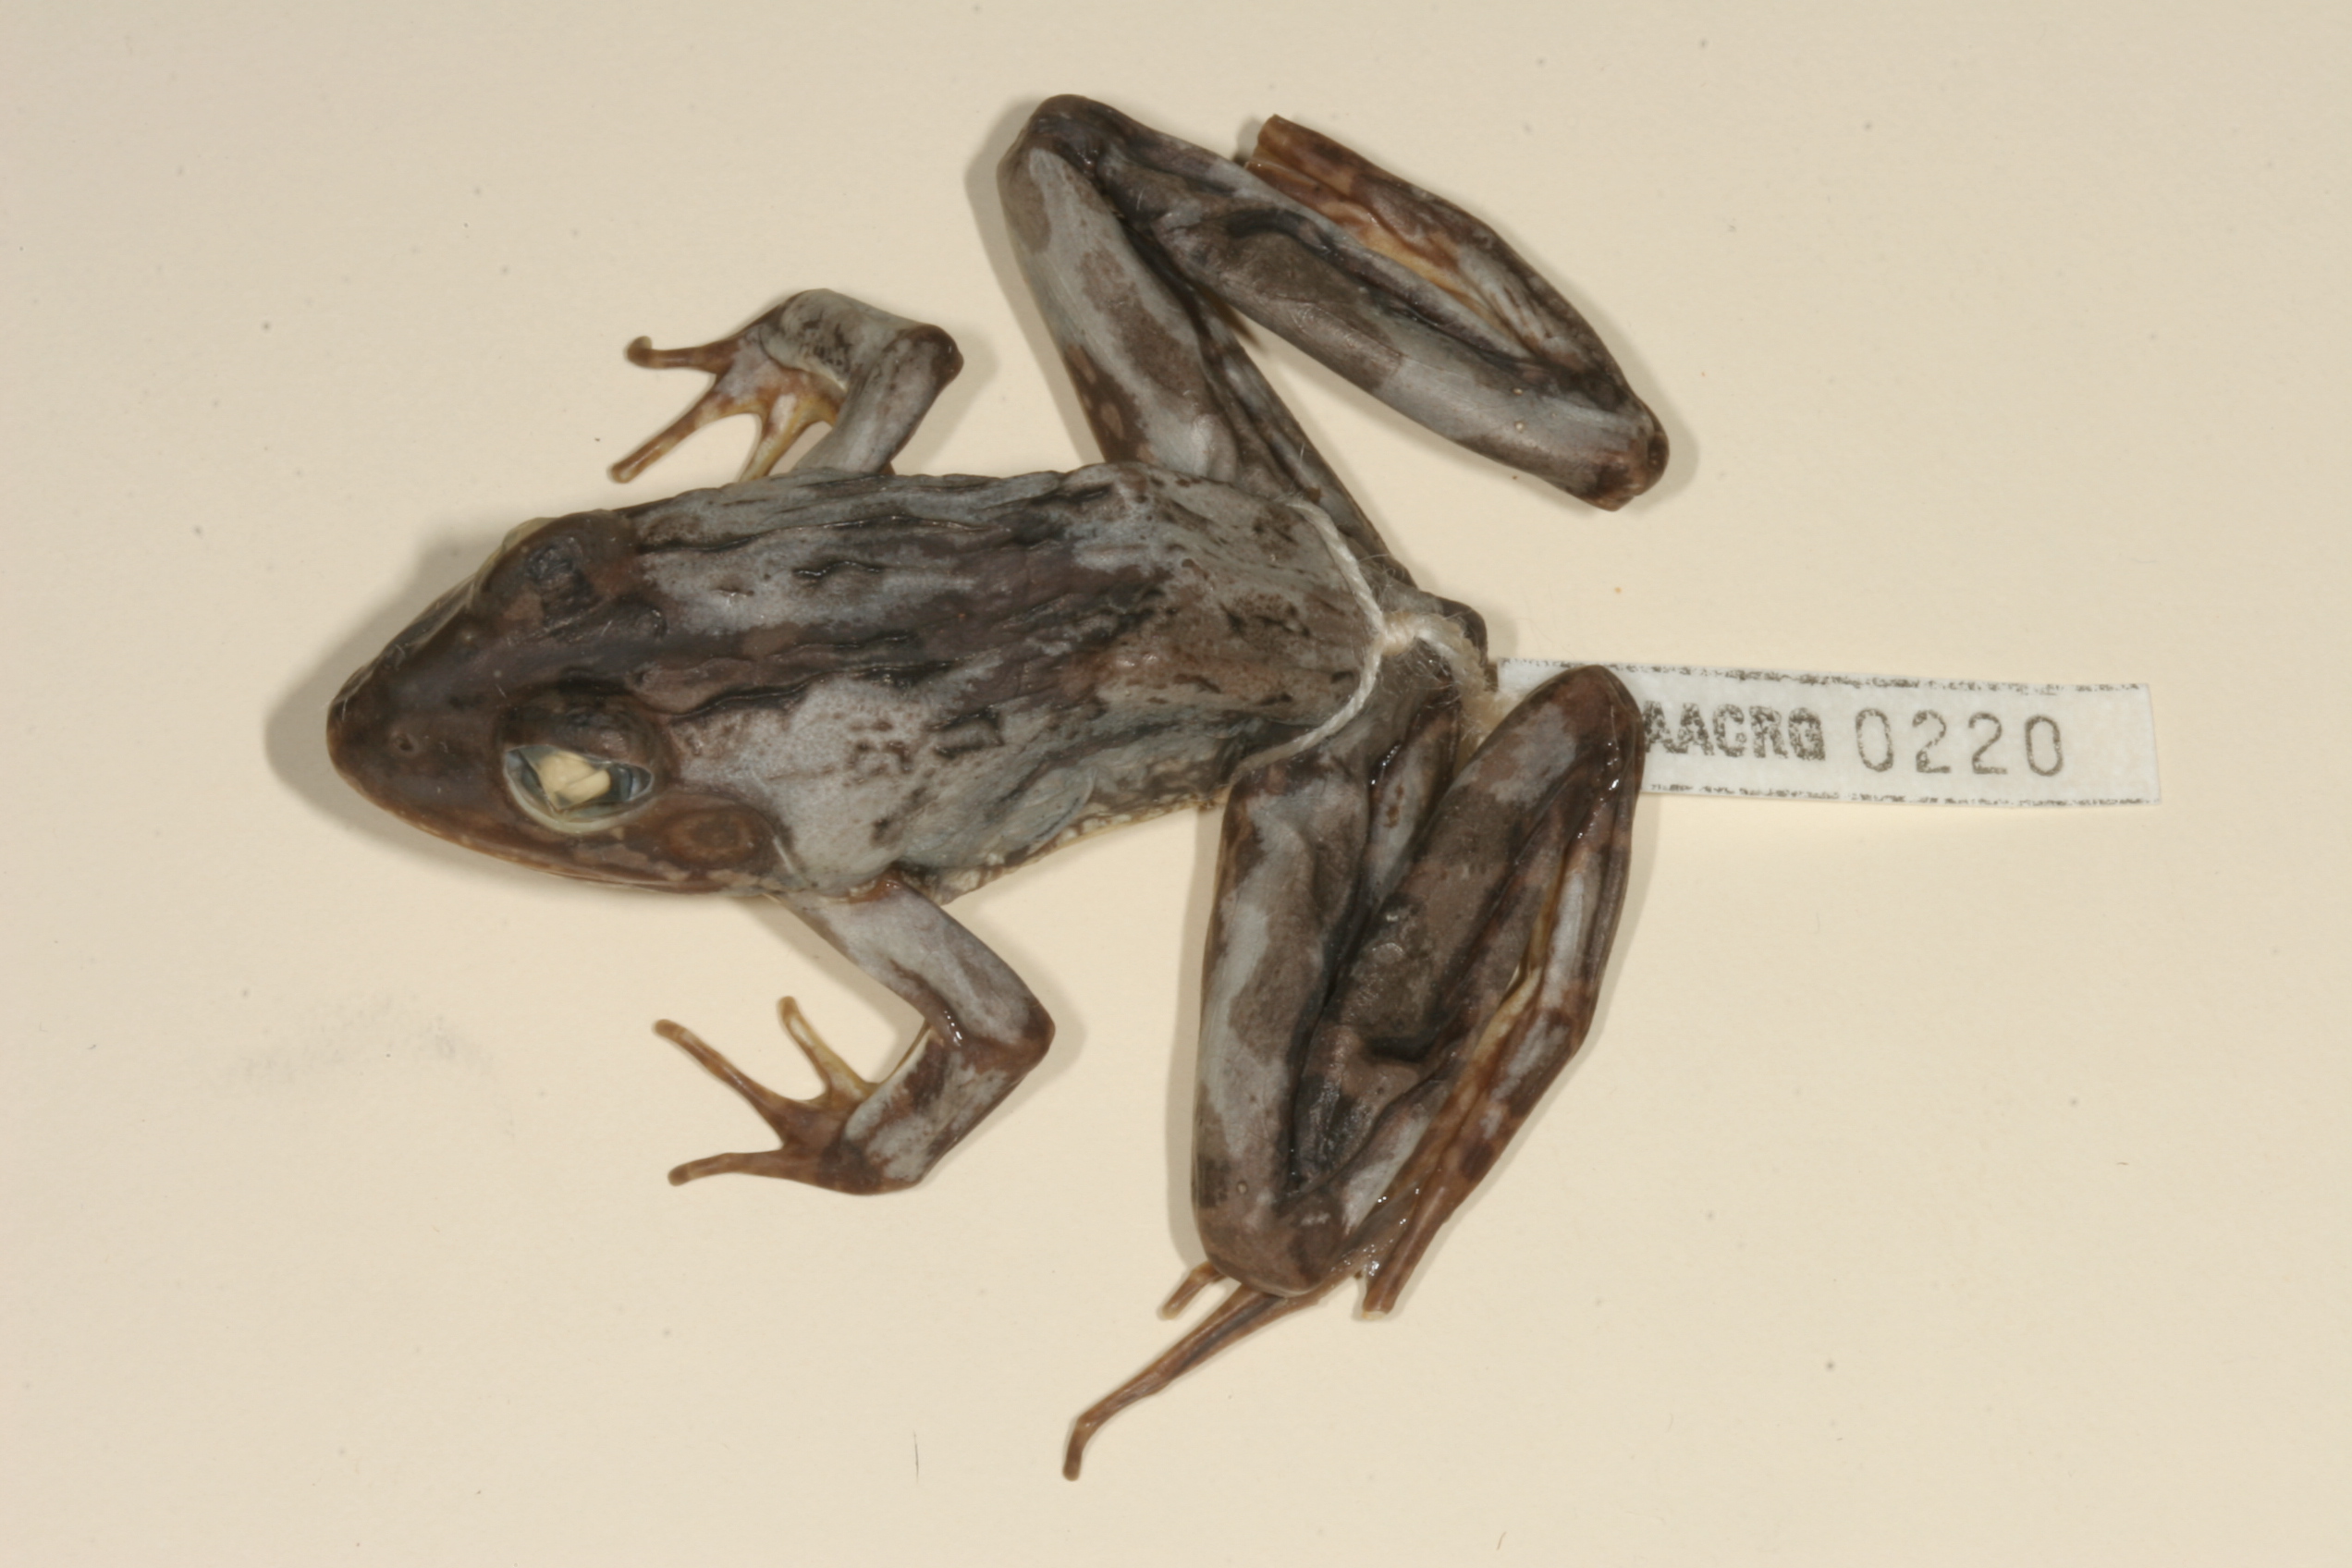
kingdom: Animalia
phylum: Chordata
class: Amphibia
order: Anura
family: Pyxicephalidae
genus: Amietia
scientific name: Amietia angolensis
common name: Dusky-throated frog
